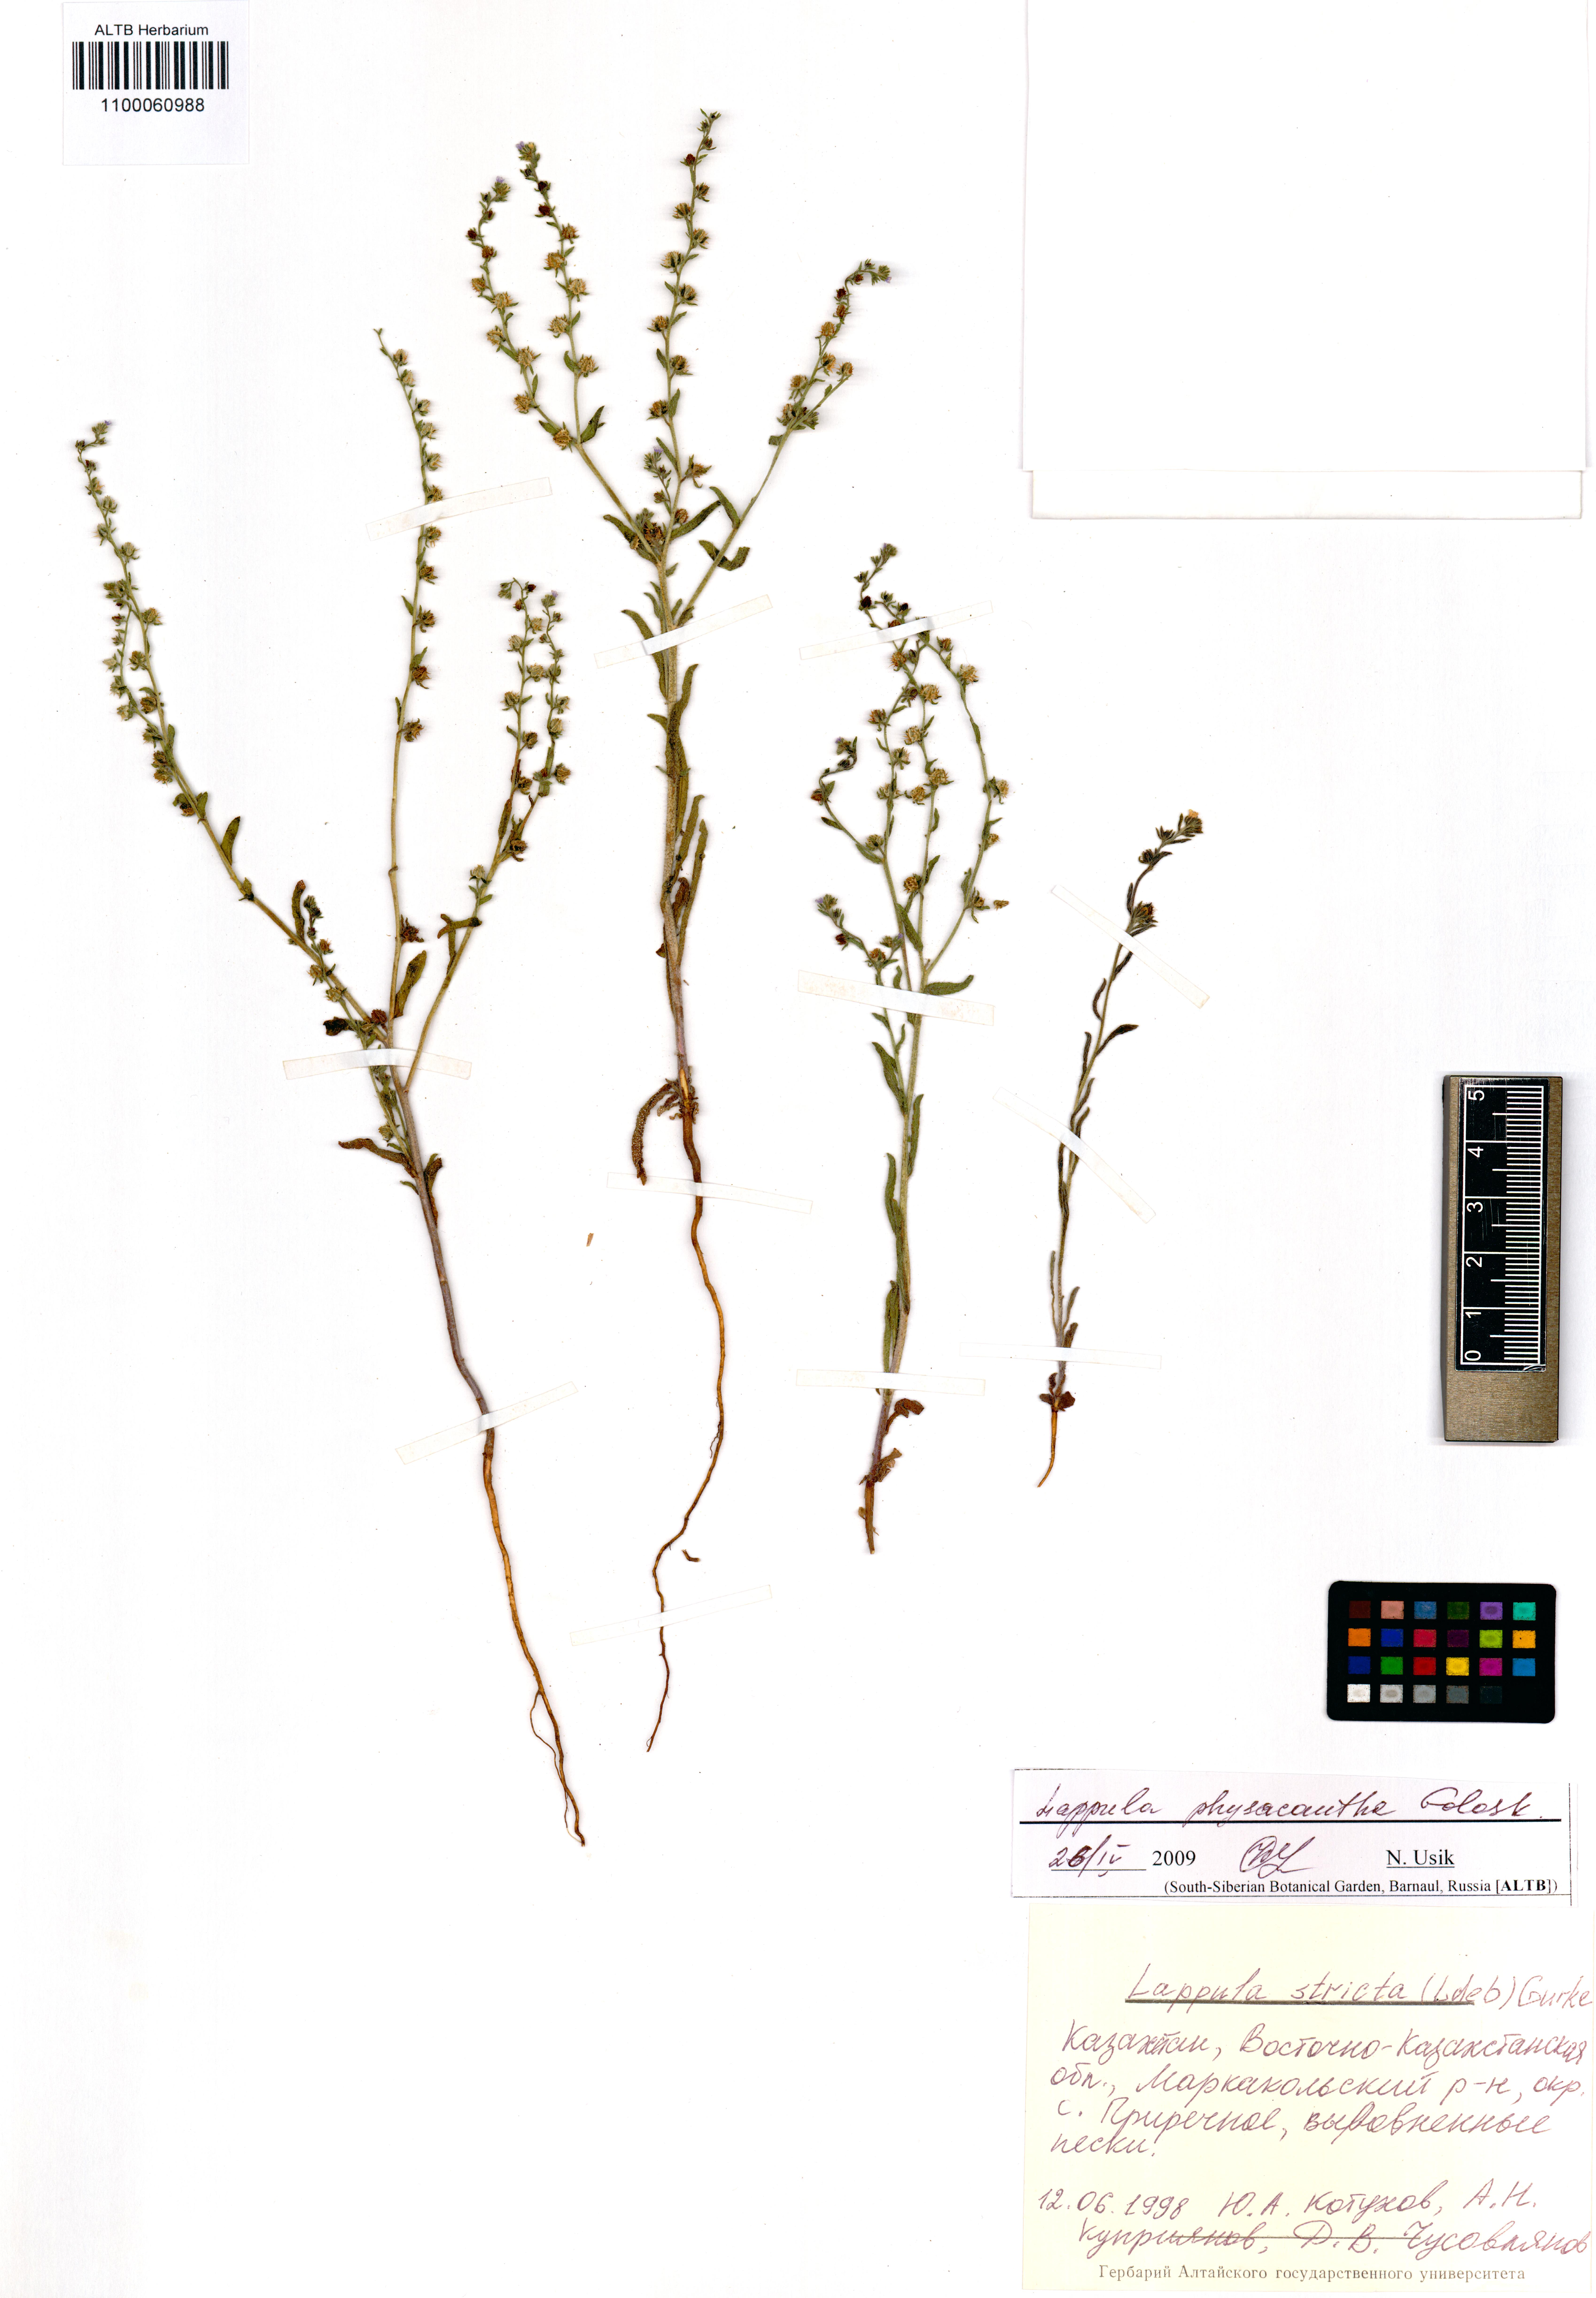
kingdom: Plantae
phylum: Tracheophyta
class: Magnoliopsida
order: Boraginales
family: Boraginaceae
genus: Lappula
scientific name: Lappula physacantha
